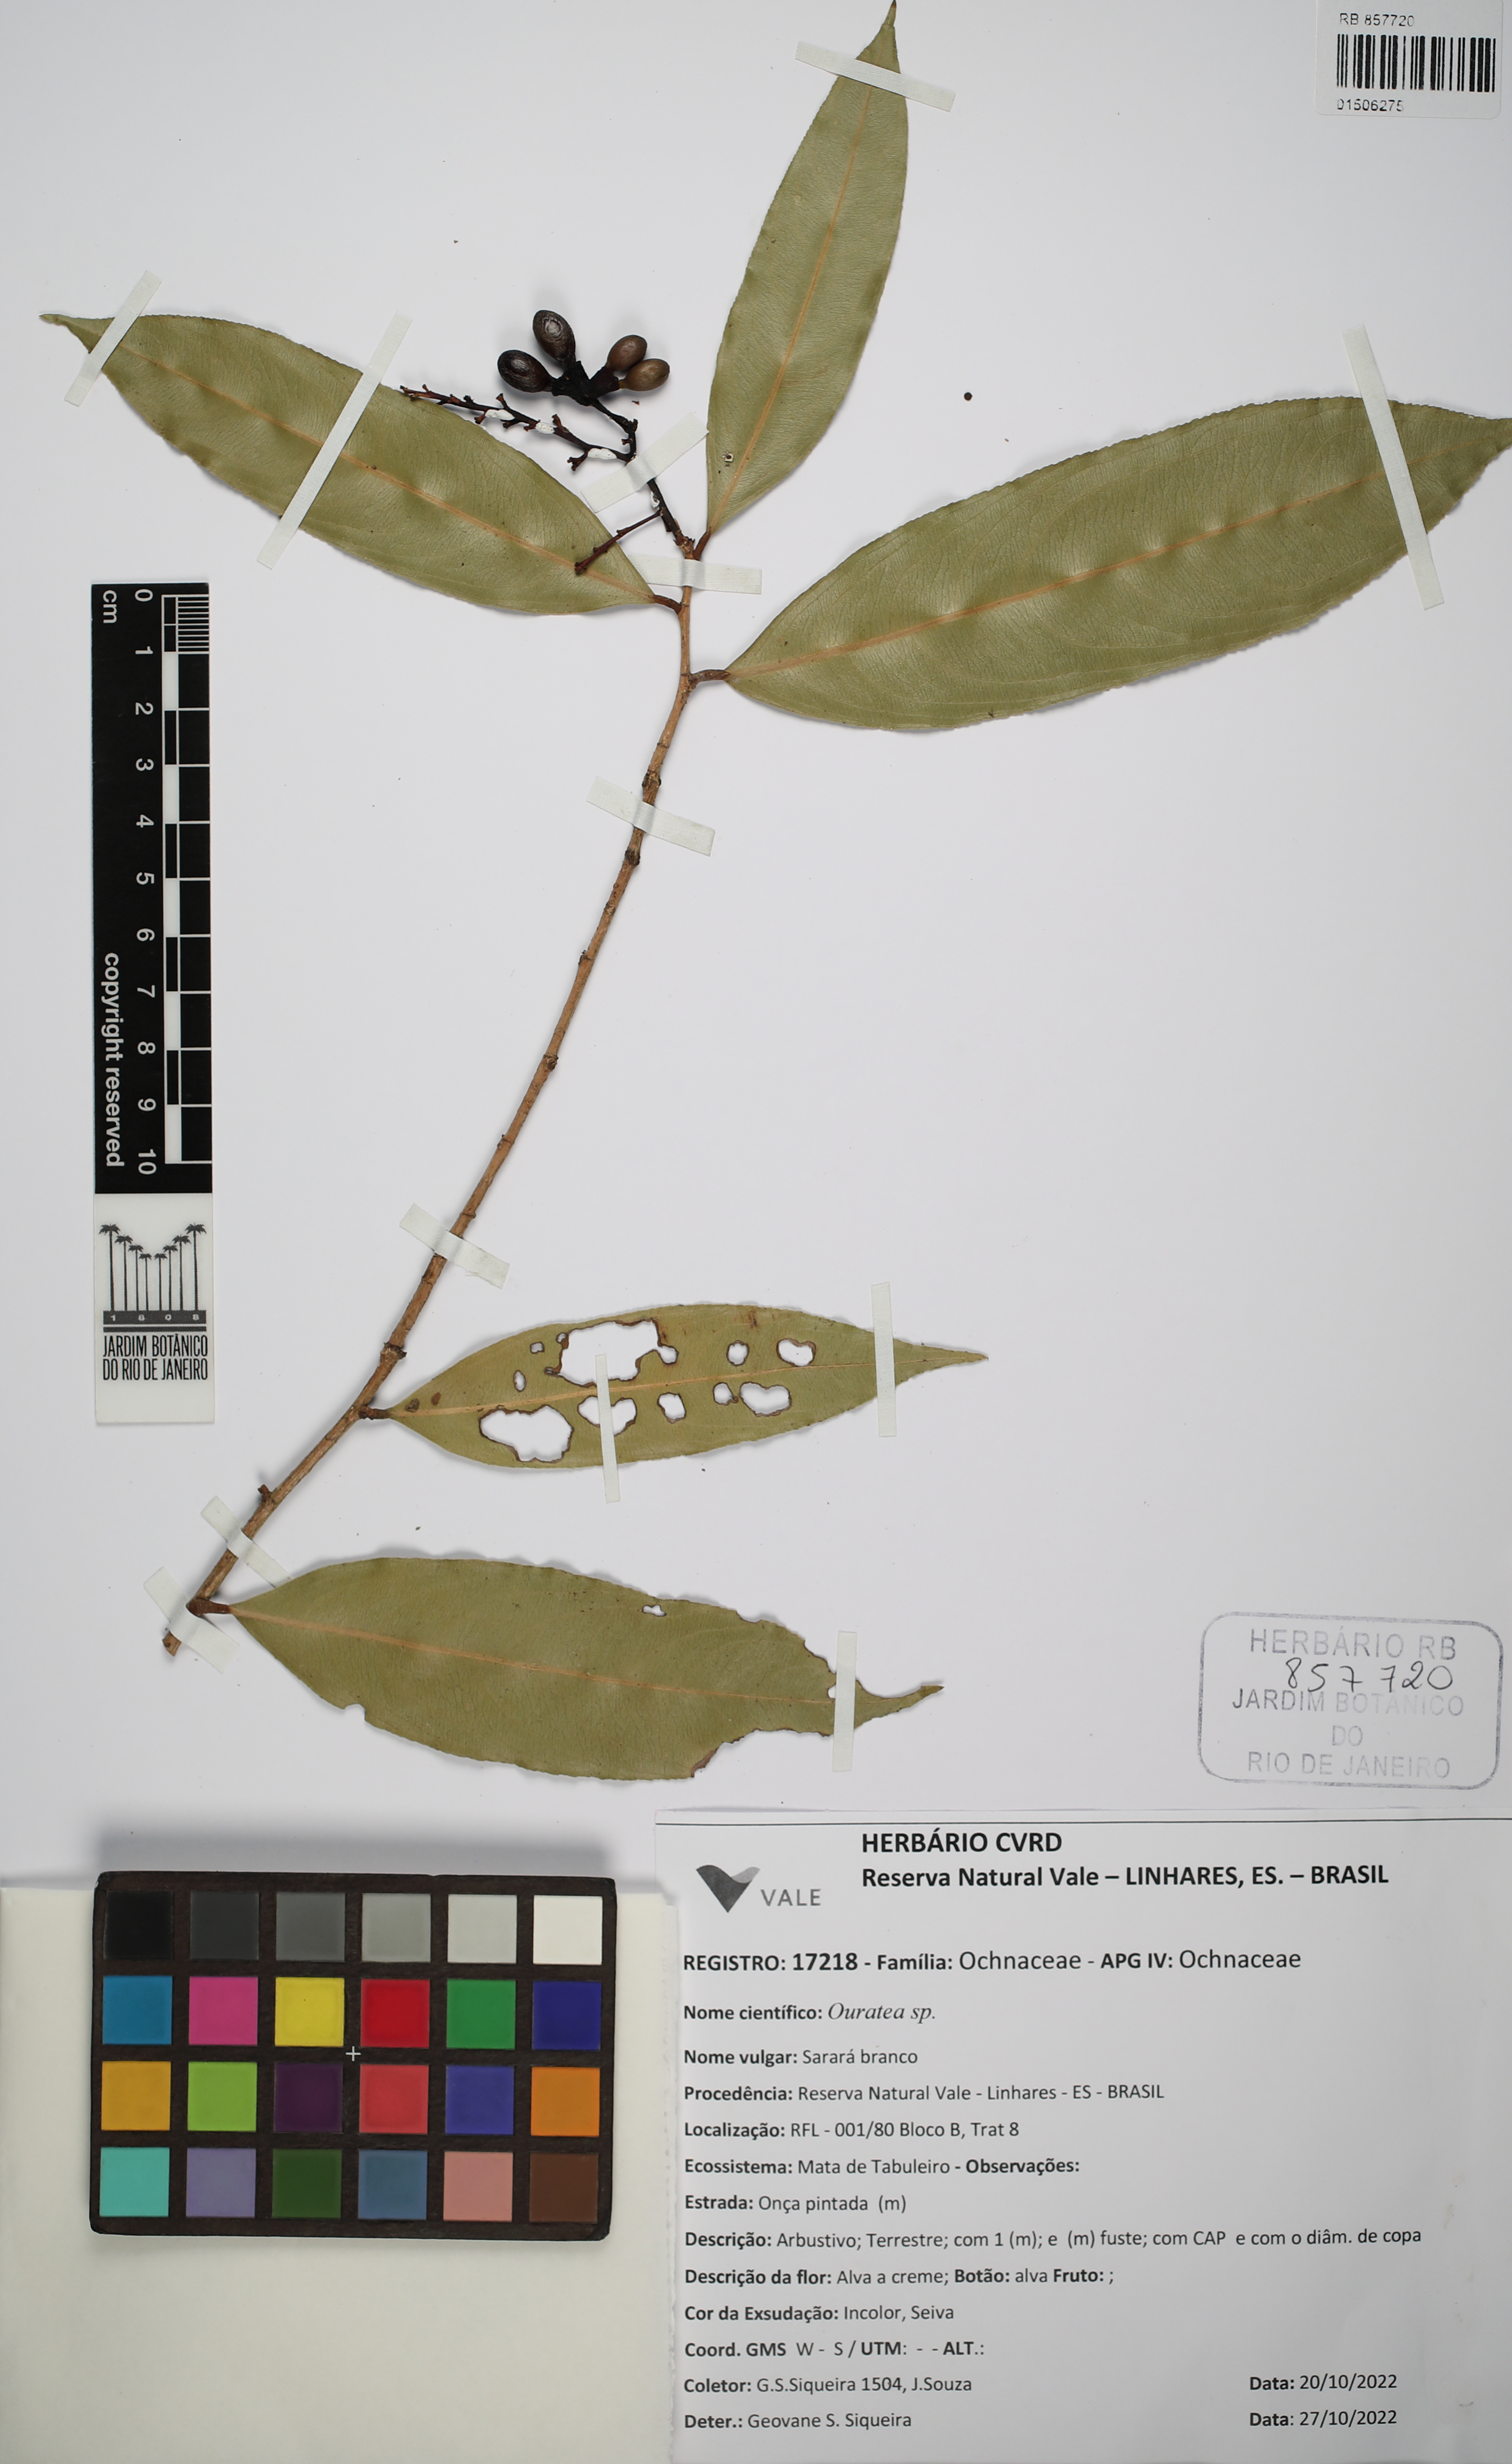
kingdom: Plantae
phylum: Tracheophyta
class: Magnoliopsida
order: Malpighiales
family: Ochnaceae
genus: Ouratea
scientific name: Ouratea
